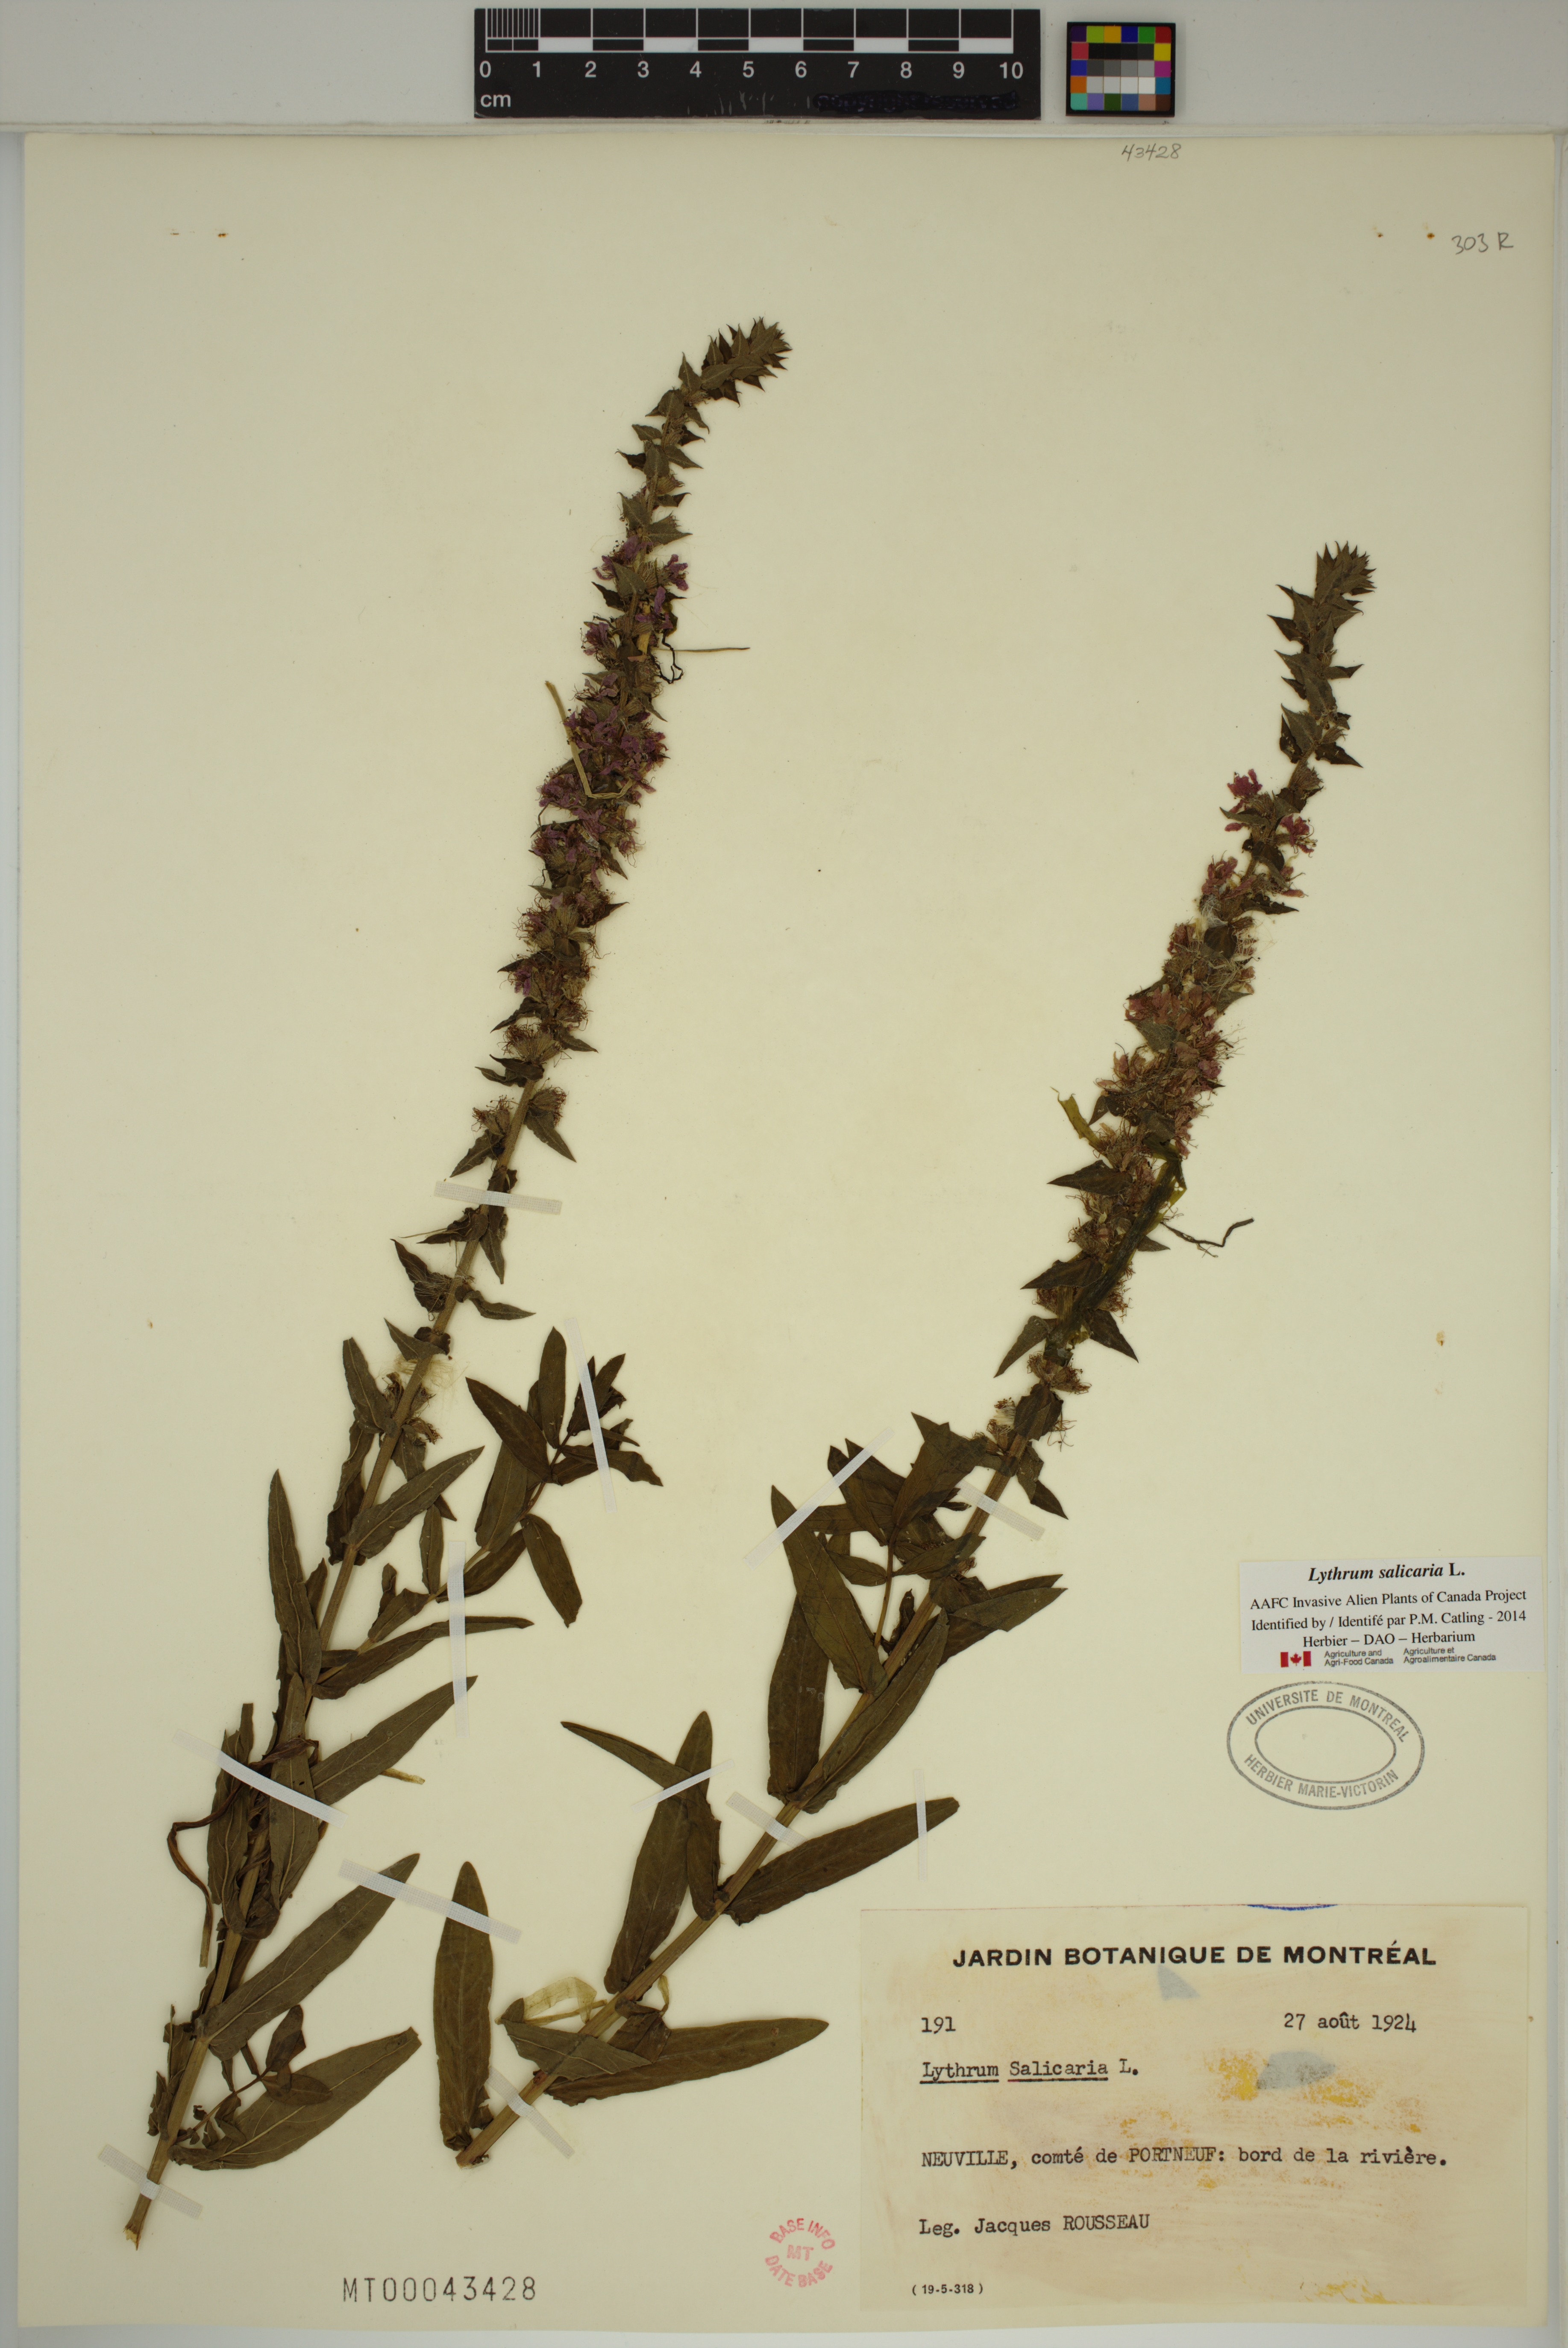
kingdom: Plantae
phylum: Tracheophyta
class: Magnoliopsida
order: Myrtales
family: Lythraceae
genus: Lythrum
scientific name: Lythrum salicaria
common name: Purple loosestrife
